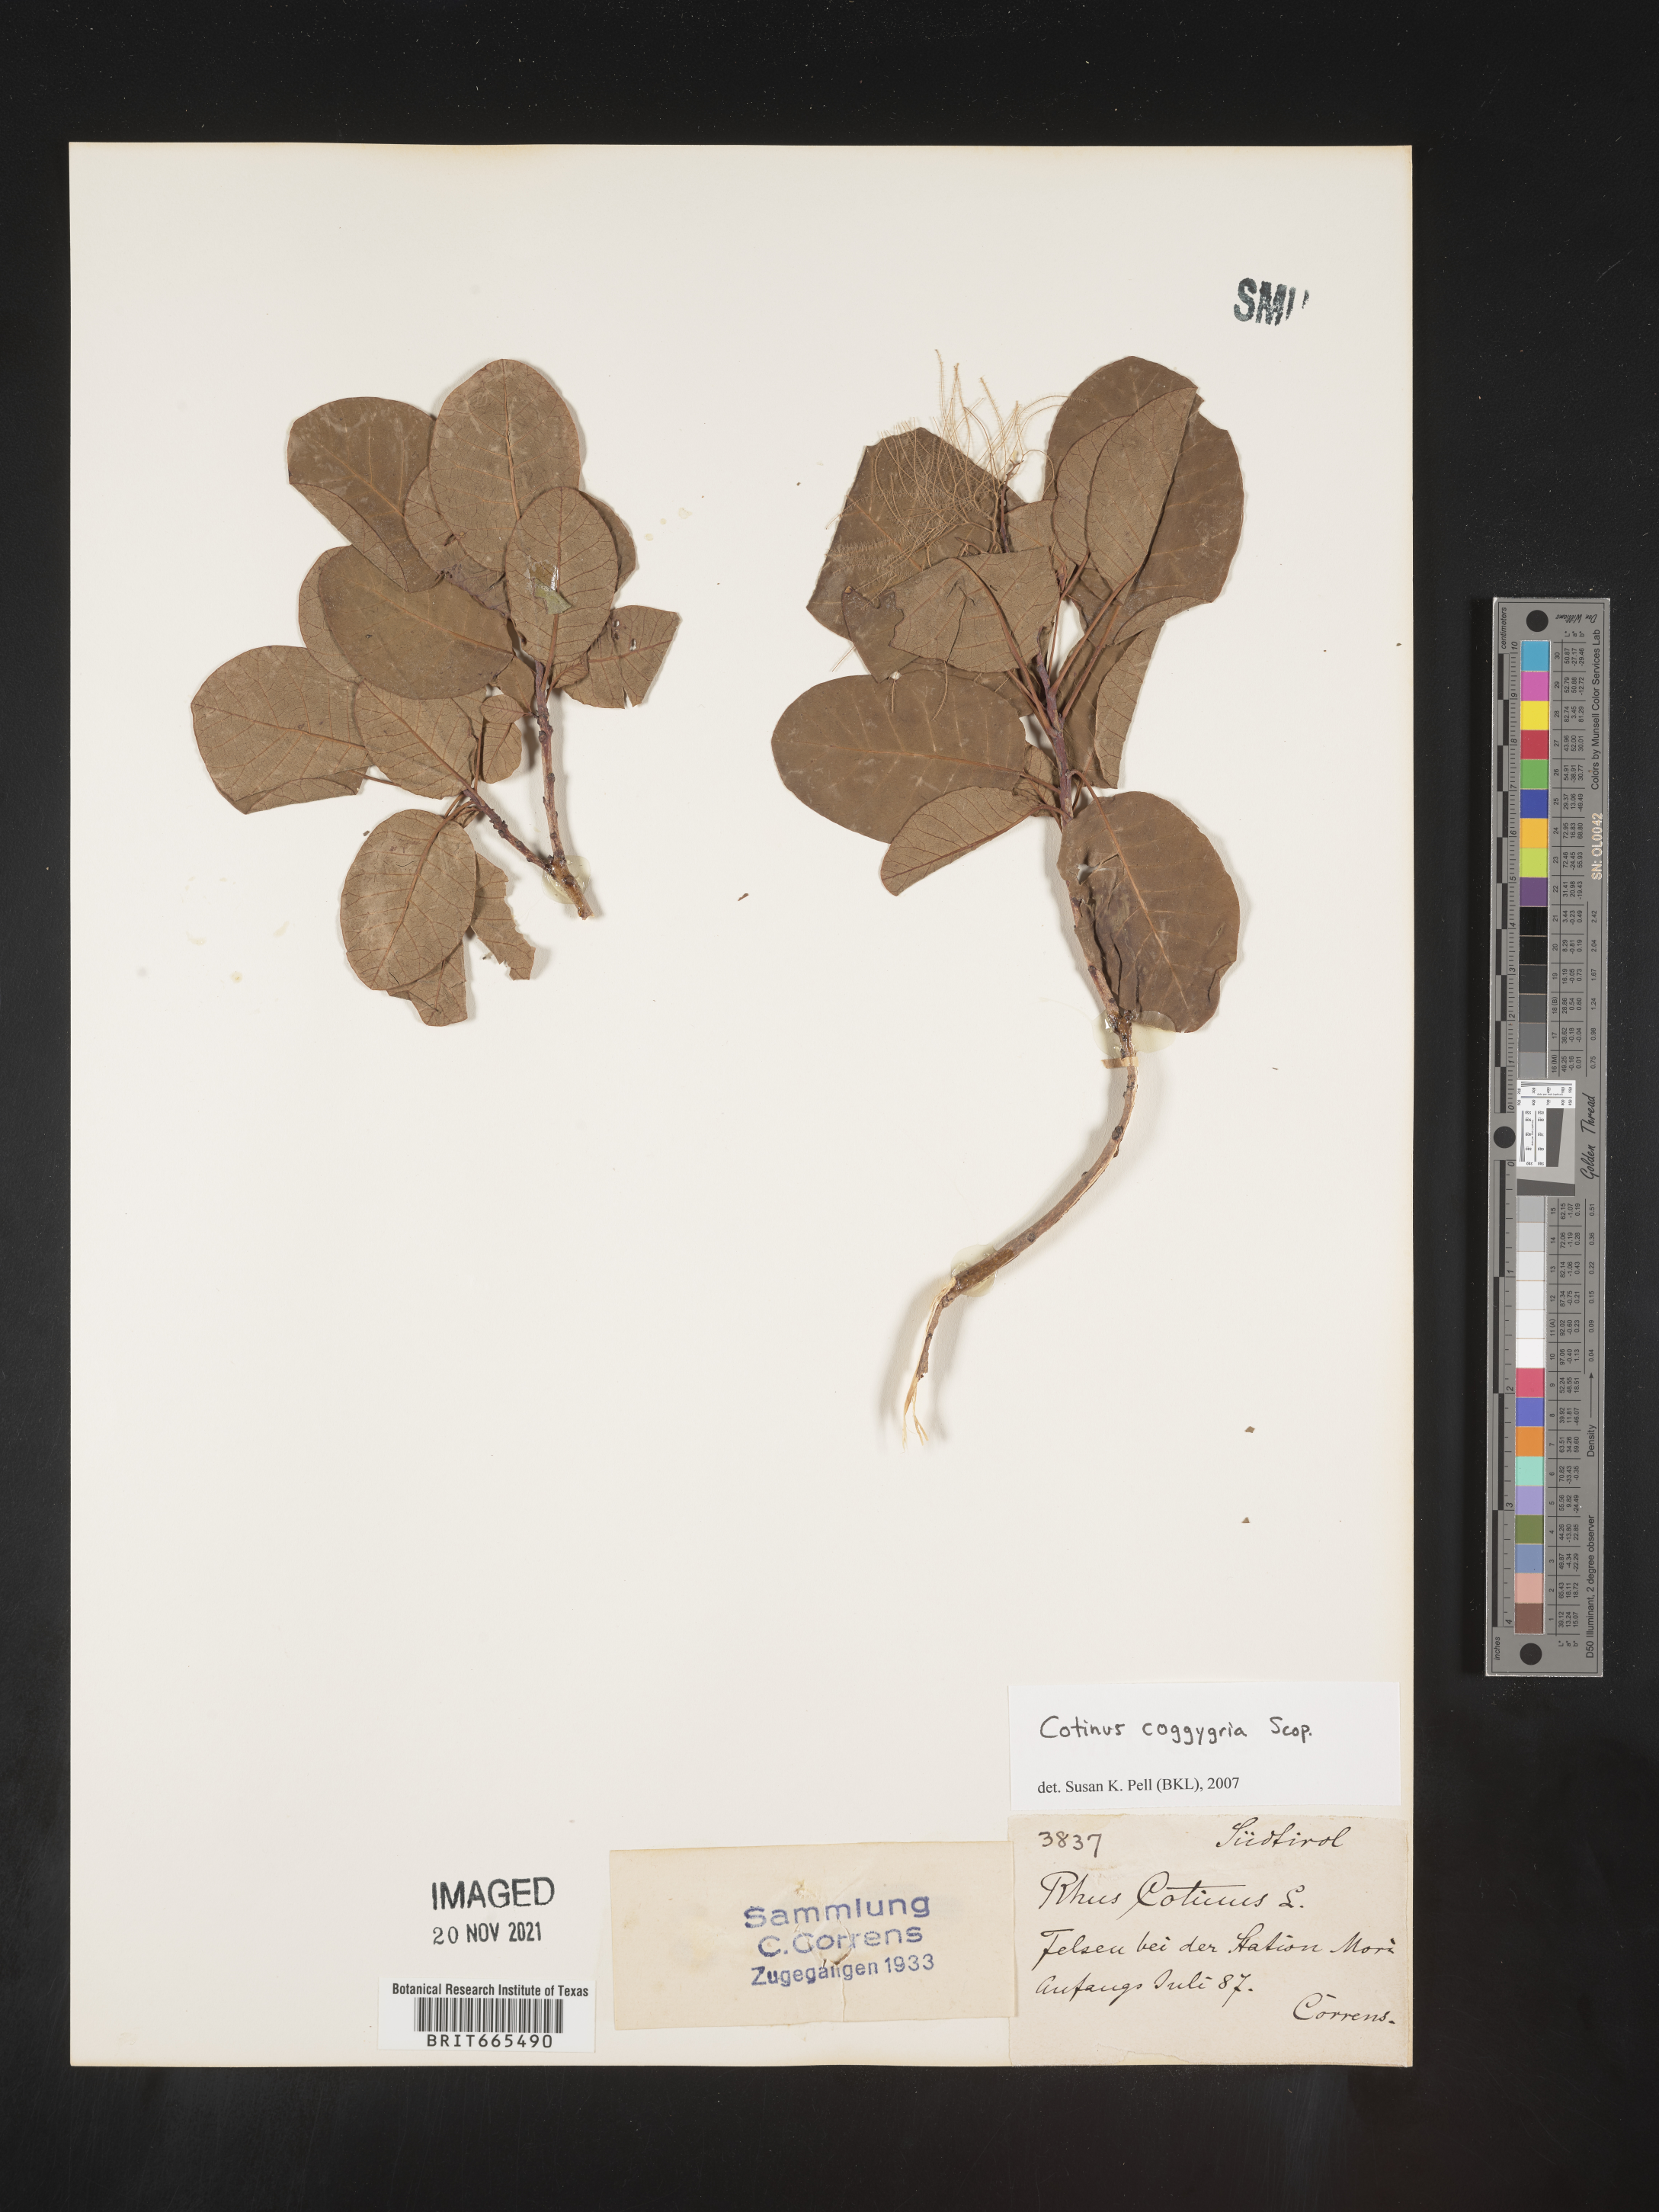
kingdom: Plantae
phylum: Tracheophyta
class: Magnoliopsida
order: Sapindales
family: Anacardiaceae
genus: Cotinus
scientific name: Cotinus
